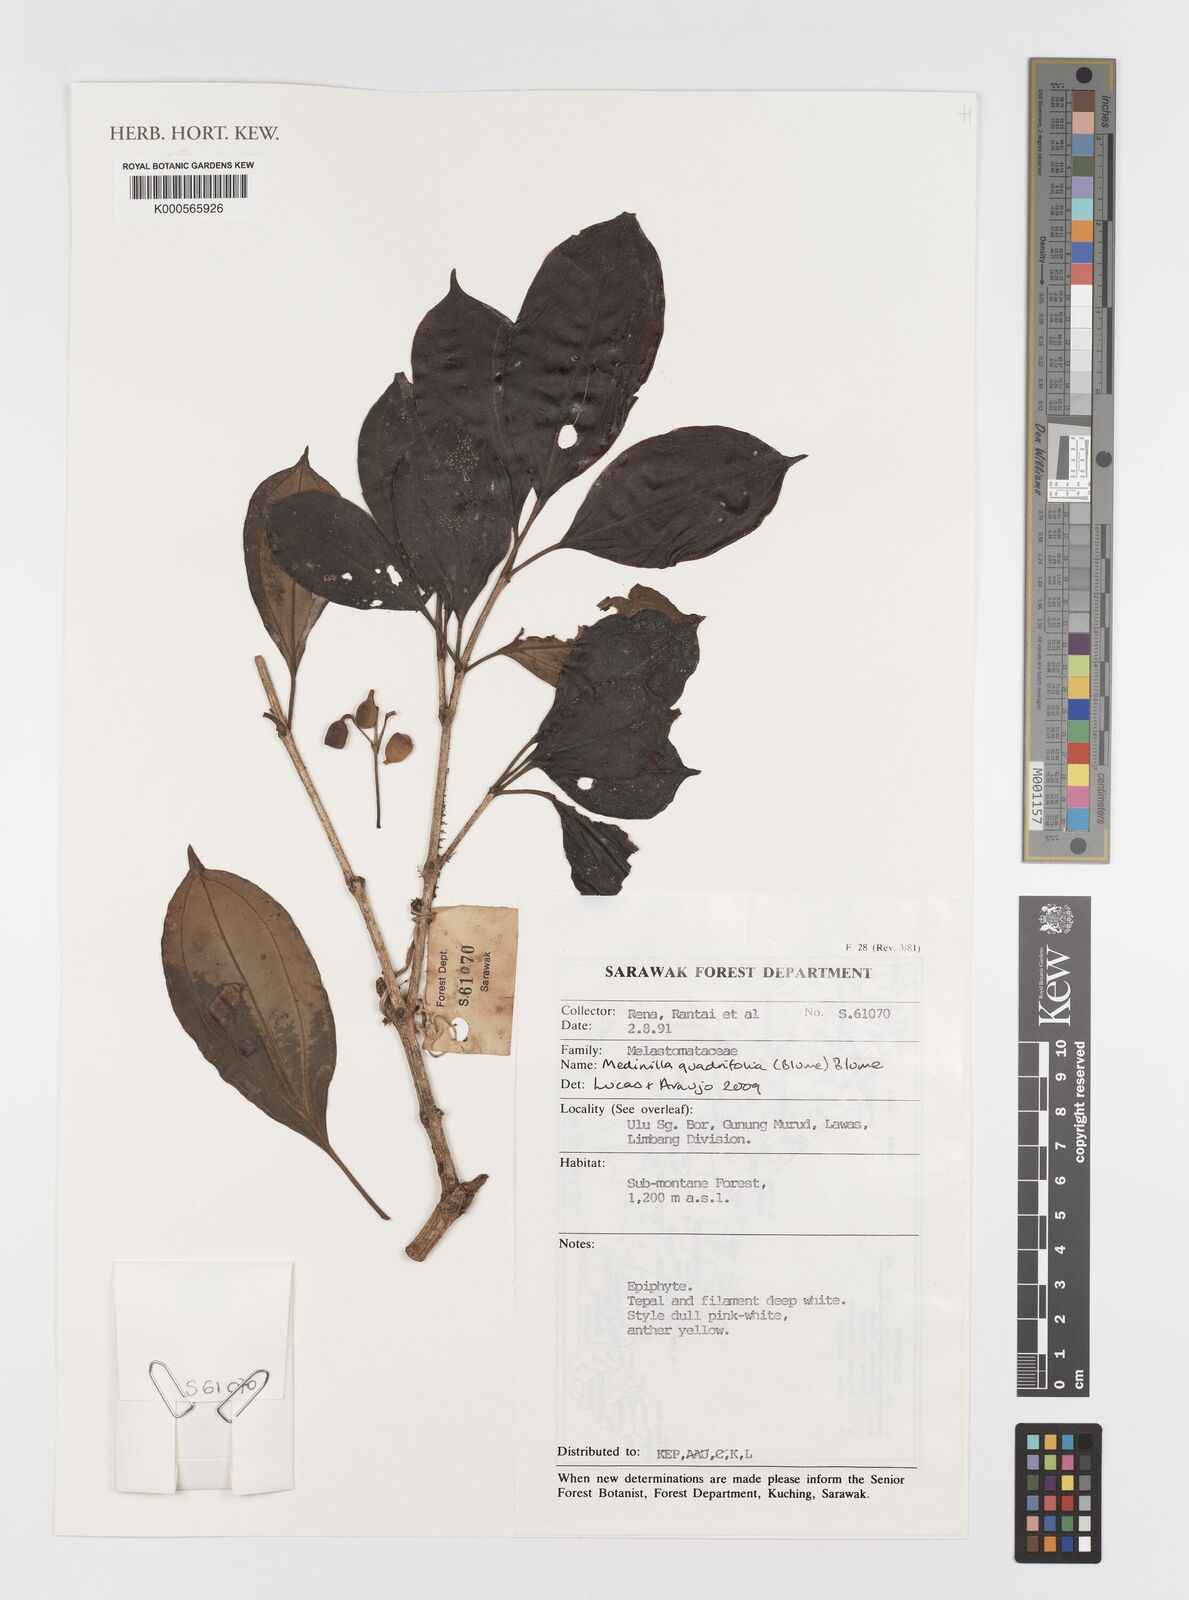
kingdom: Plantae
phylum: Tracheophyta
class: Magnoliopsida
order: Myrtales
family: Melastomataceae
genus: Medinilla
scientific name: Medinilla quadrifolia
